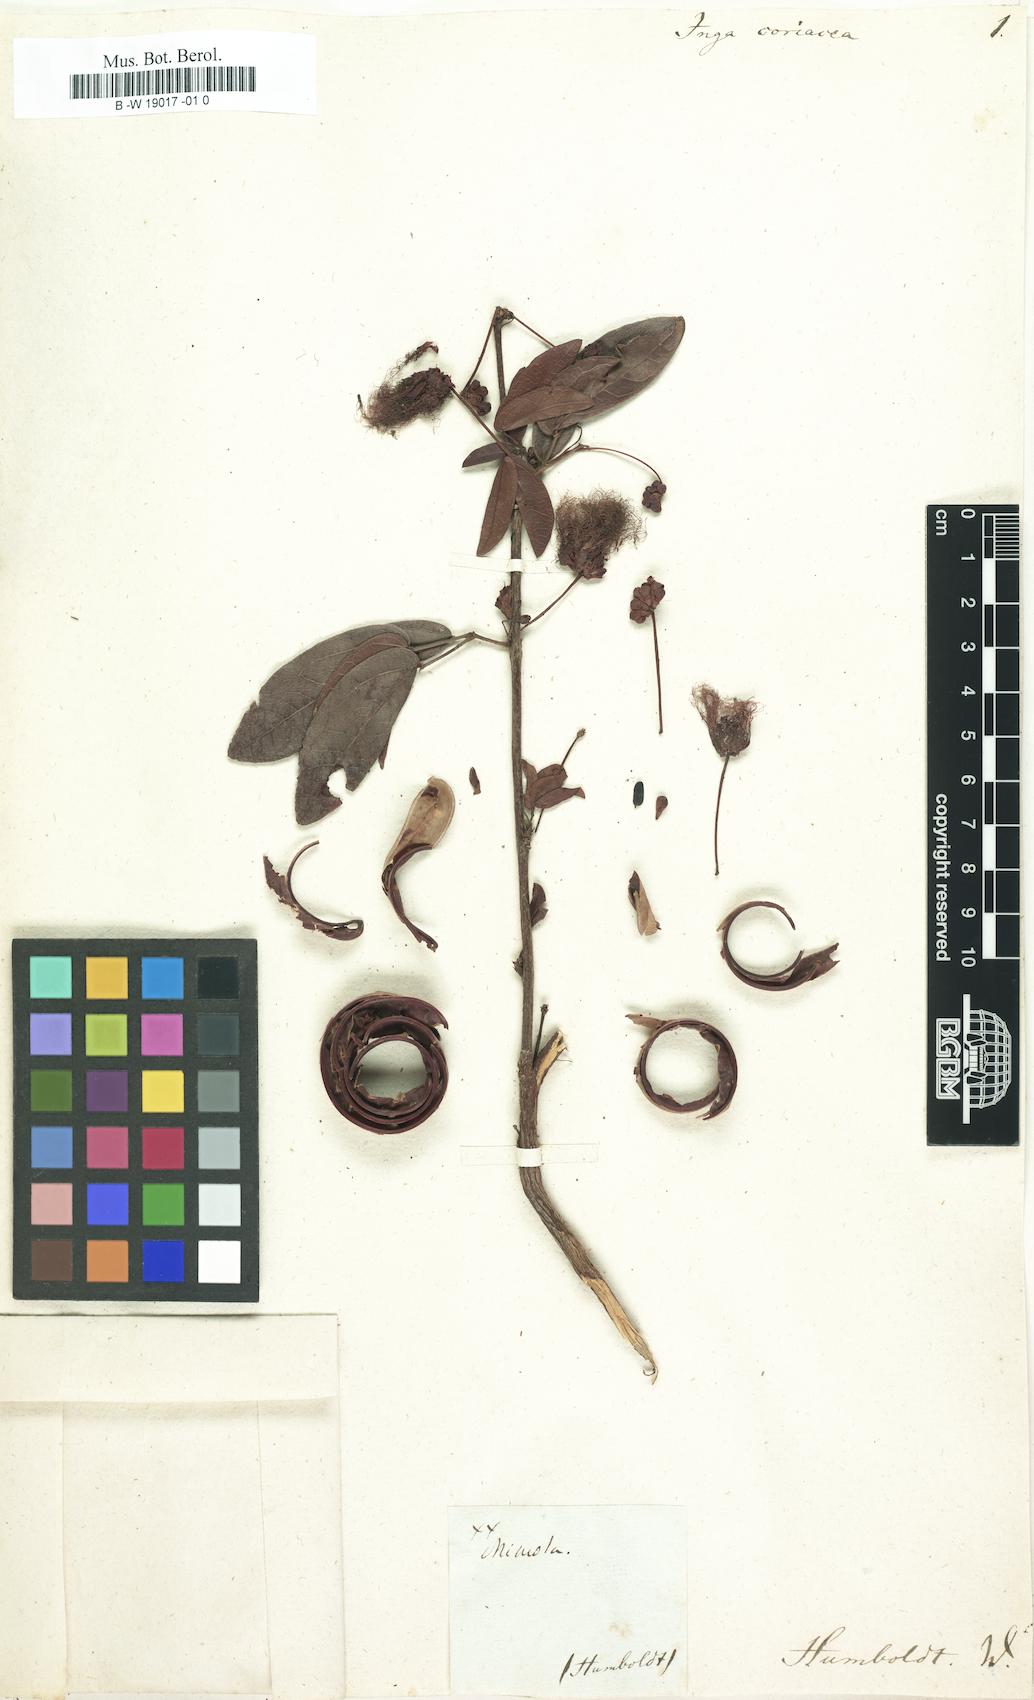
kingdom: Plantae
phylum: Tracheophyta
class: Magnoliopsida
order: Fabales
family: Fabaceae
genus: Calliandra
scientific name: Calliandra coriacea
